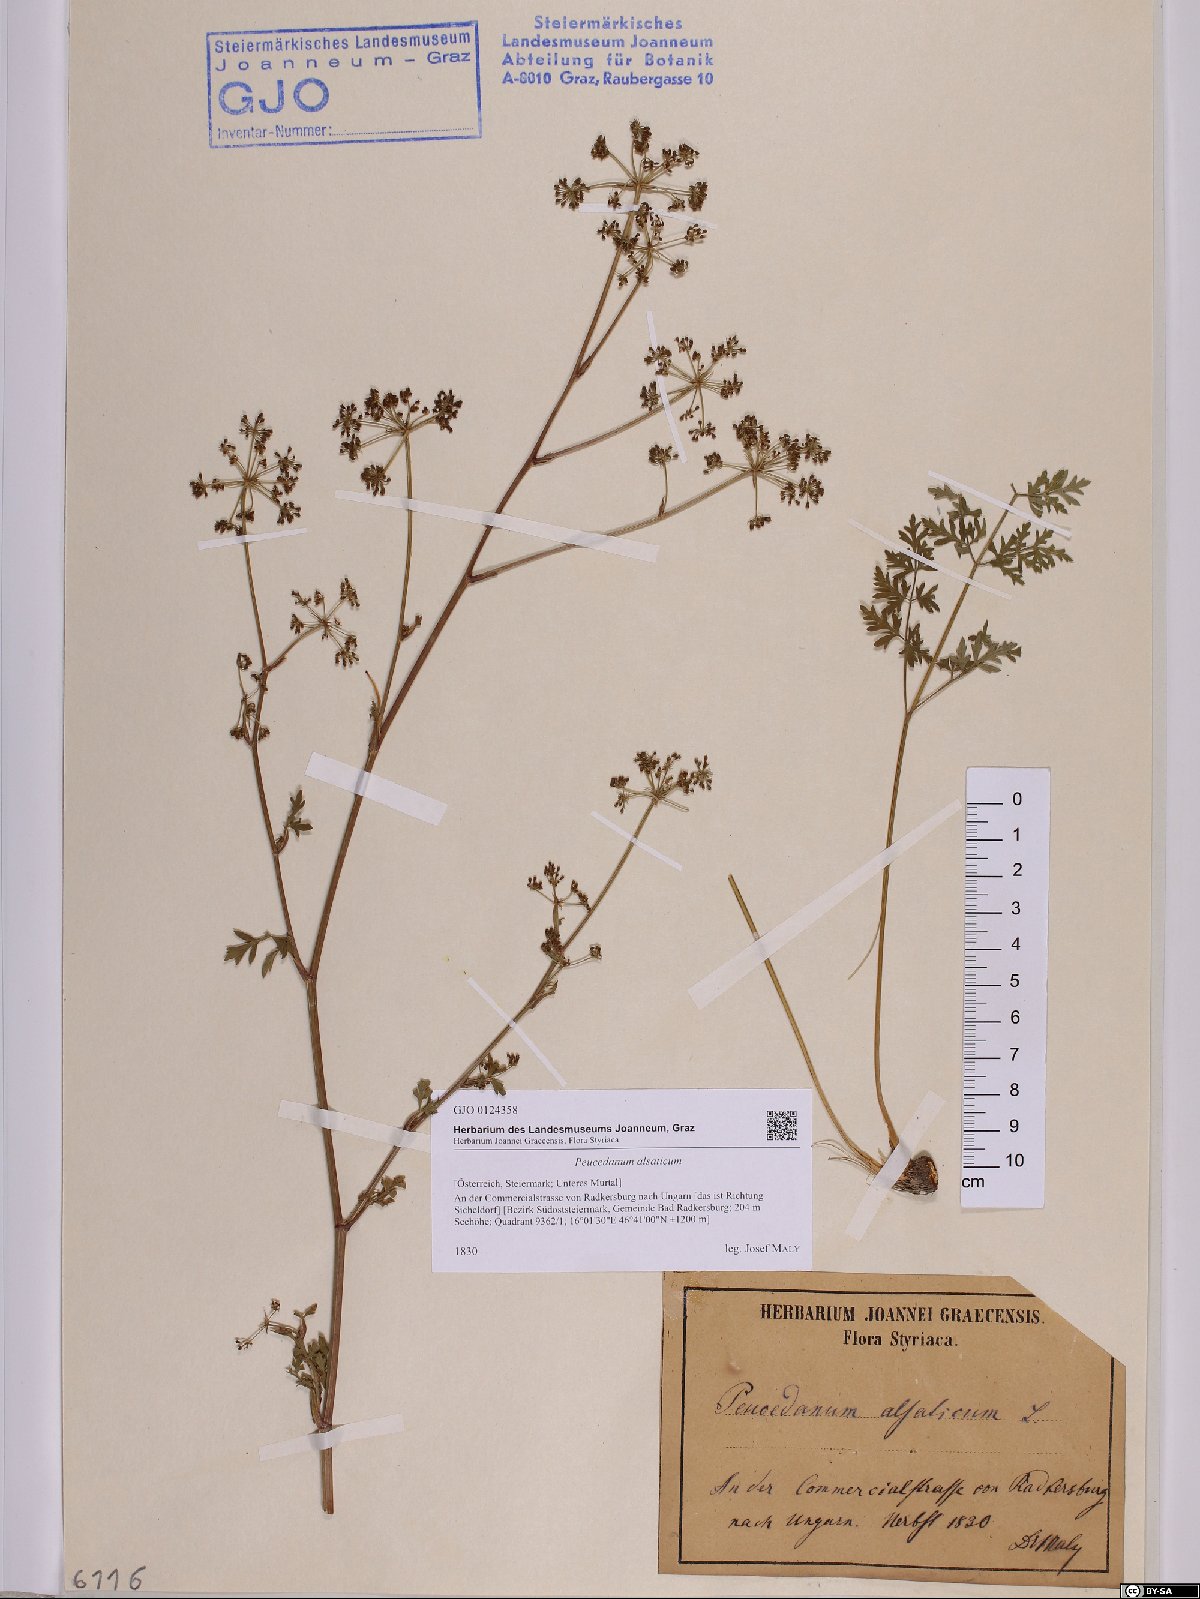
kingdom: Plantae
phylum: Tracheophyta
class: Magnoliopsida
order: Apiales
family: Apiaceae
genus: Xanthoselinum
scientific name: Xanthoselinum alsaticum
